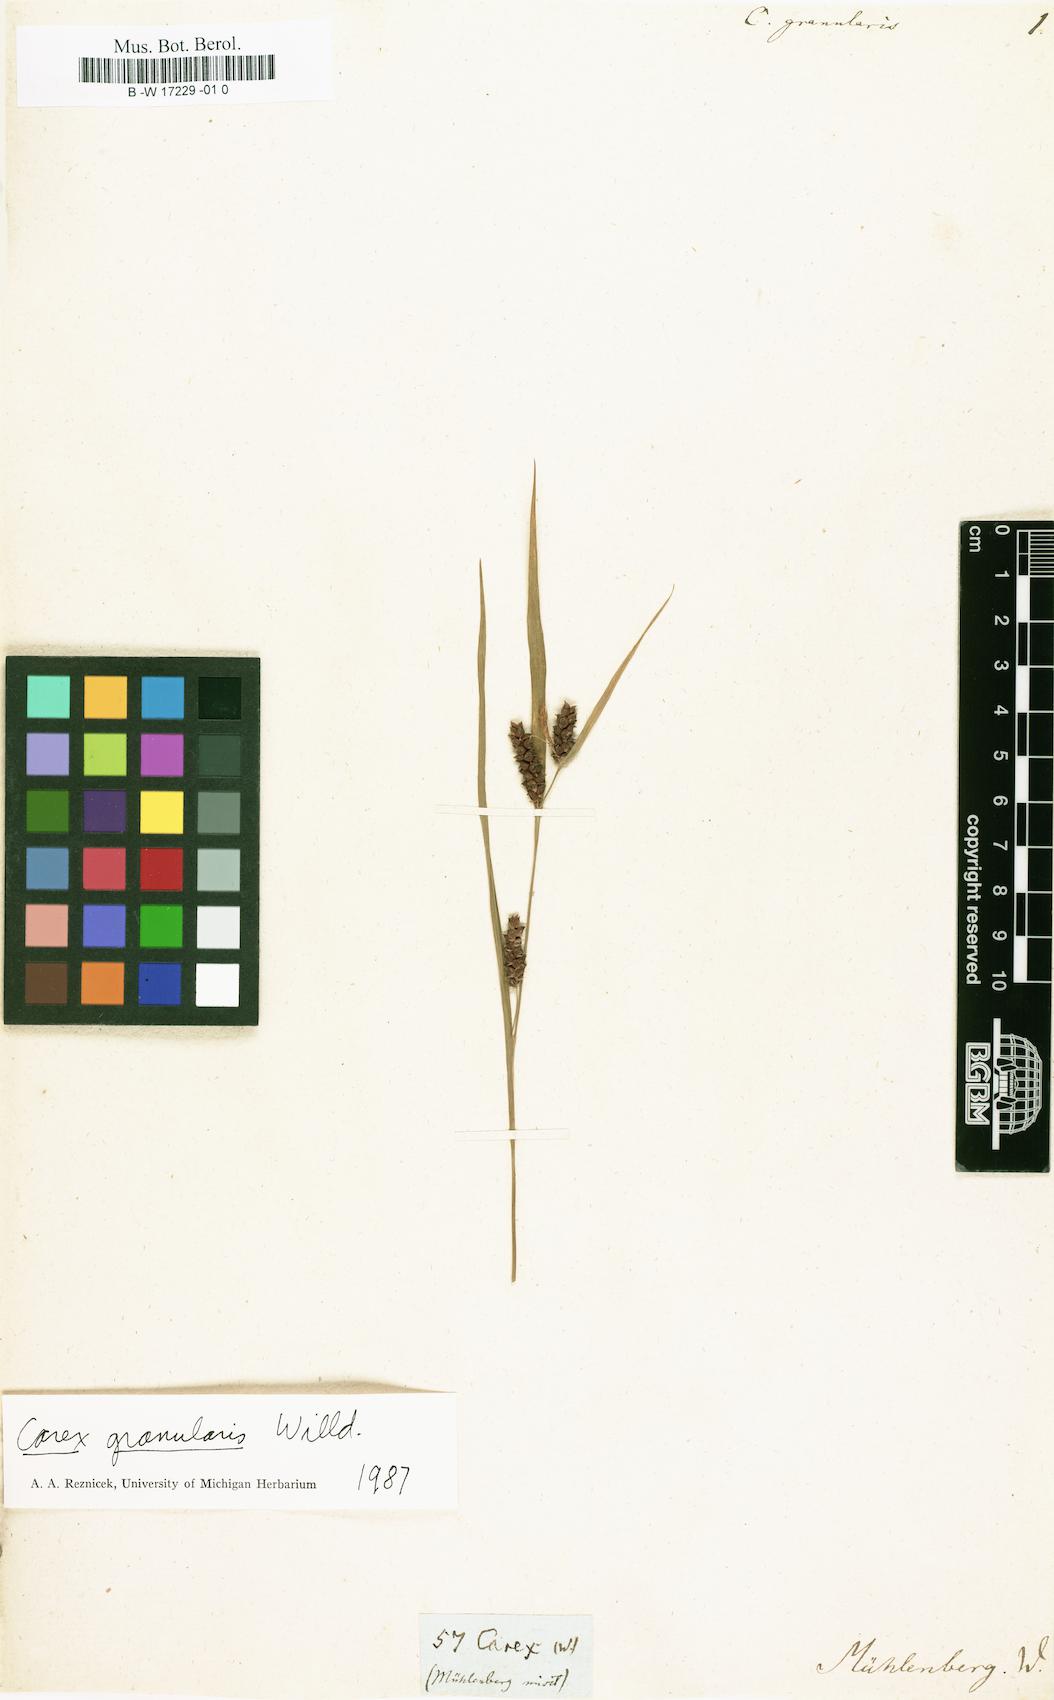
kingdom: Plantae
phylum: Tracheophyta
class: Liliopsida
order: Poales
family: Cyperaceae
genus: Carex
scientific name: Carex granularis
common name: Granular sedge
